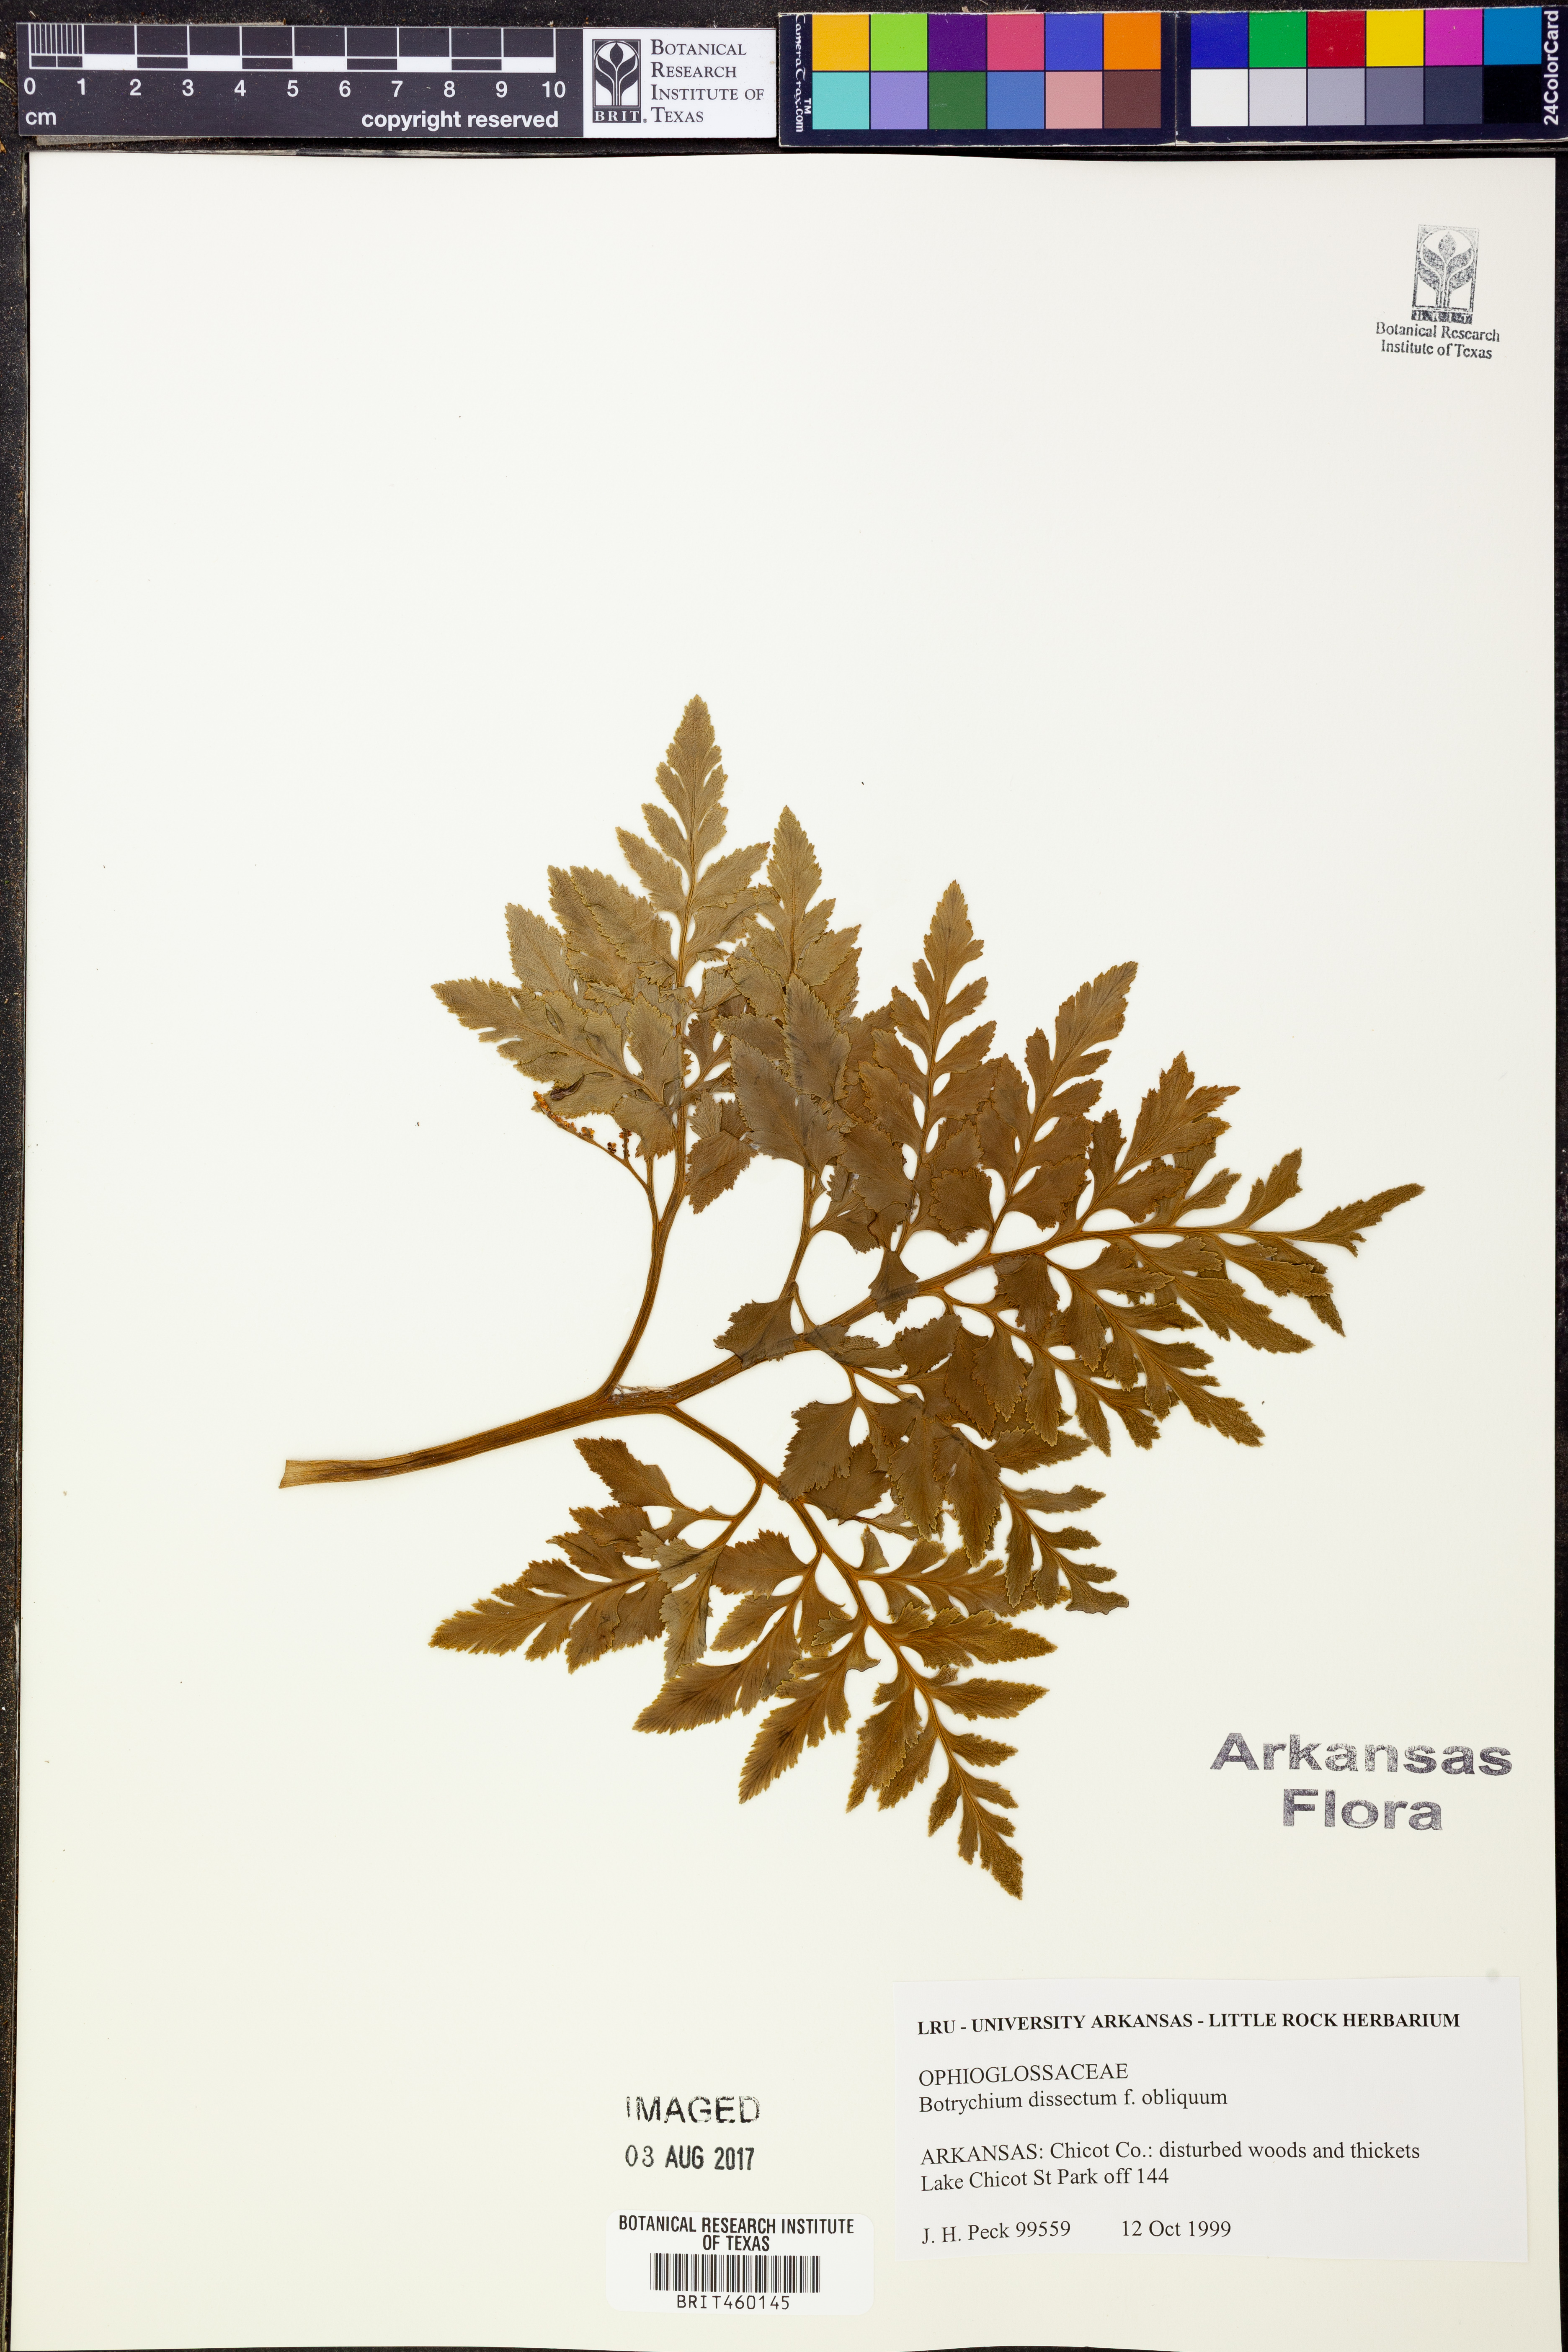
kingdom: Plantae
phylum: Tracheophyta
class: Polypodiopsida
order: Ophioglossales
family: Ophioglossaceae
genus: Sceptridium
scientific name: Sceptridium dissectum
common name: Cut-leaved grapefern
